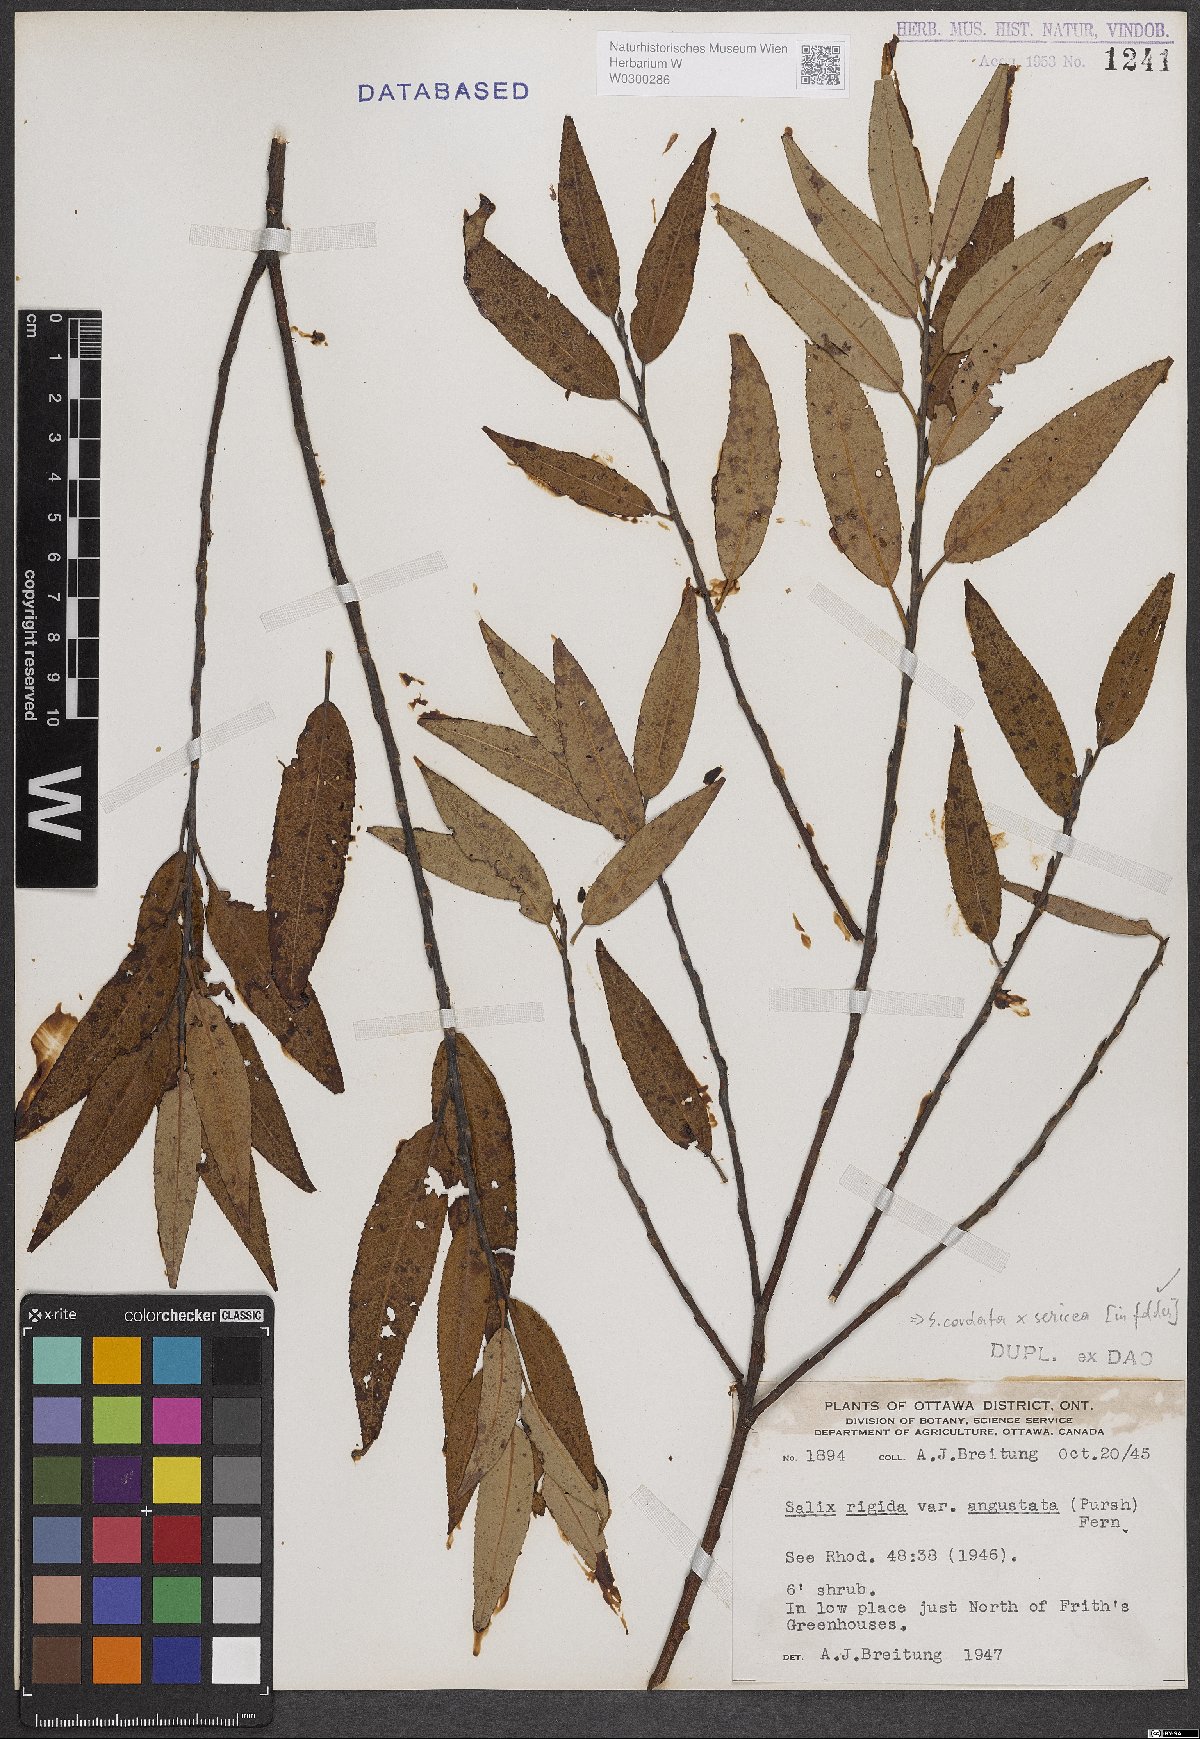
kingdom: Plantae
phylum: Tracheophyta
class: Magnoliopsida
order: Malpighiales
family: Salicaceae
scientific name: Salicaceae
